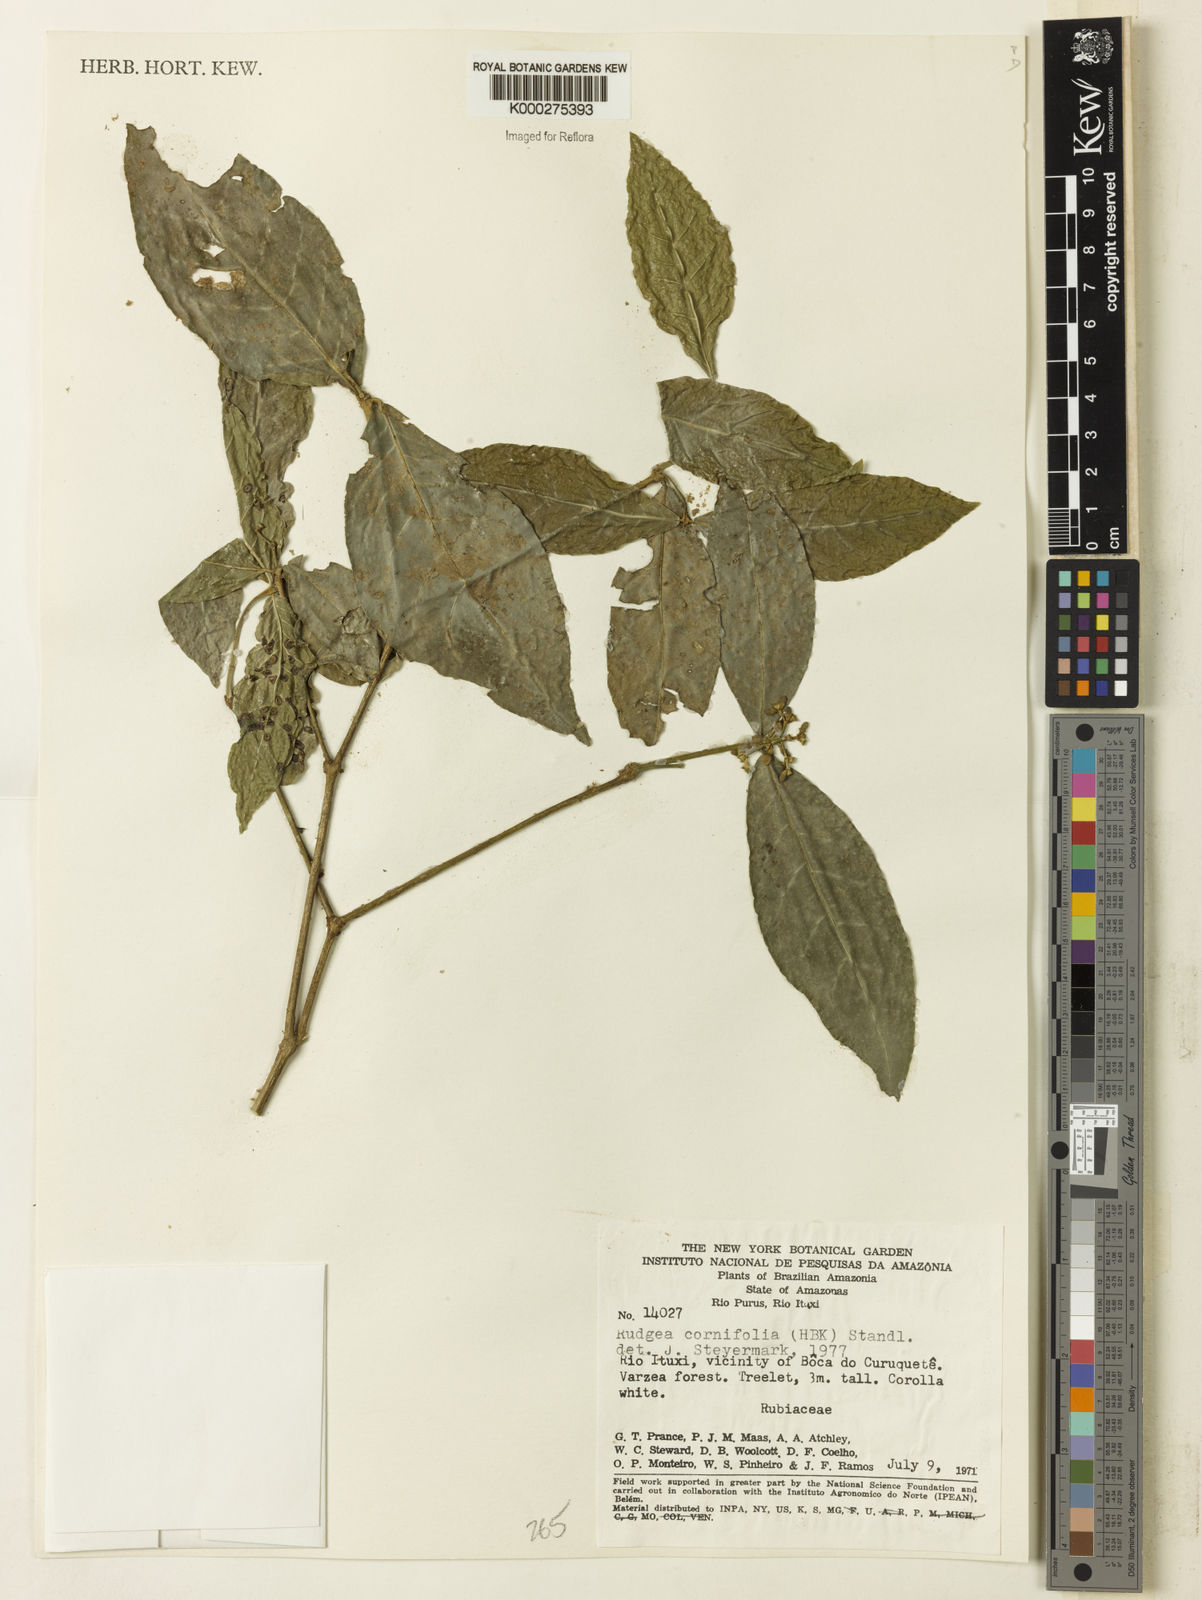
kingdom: Plantae
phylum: Tracheophyta
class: Magnoliopsida
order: Gentianales
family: Rubiaceae
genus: Rudgea
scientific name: Rudgea cornifolia
